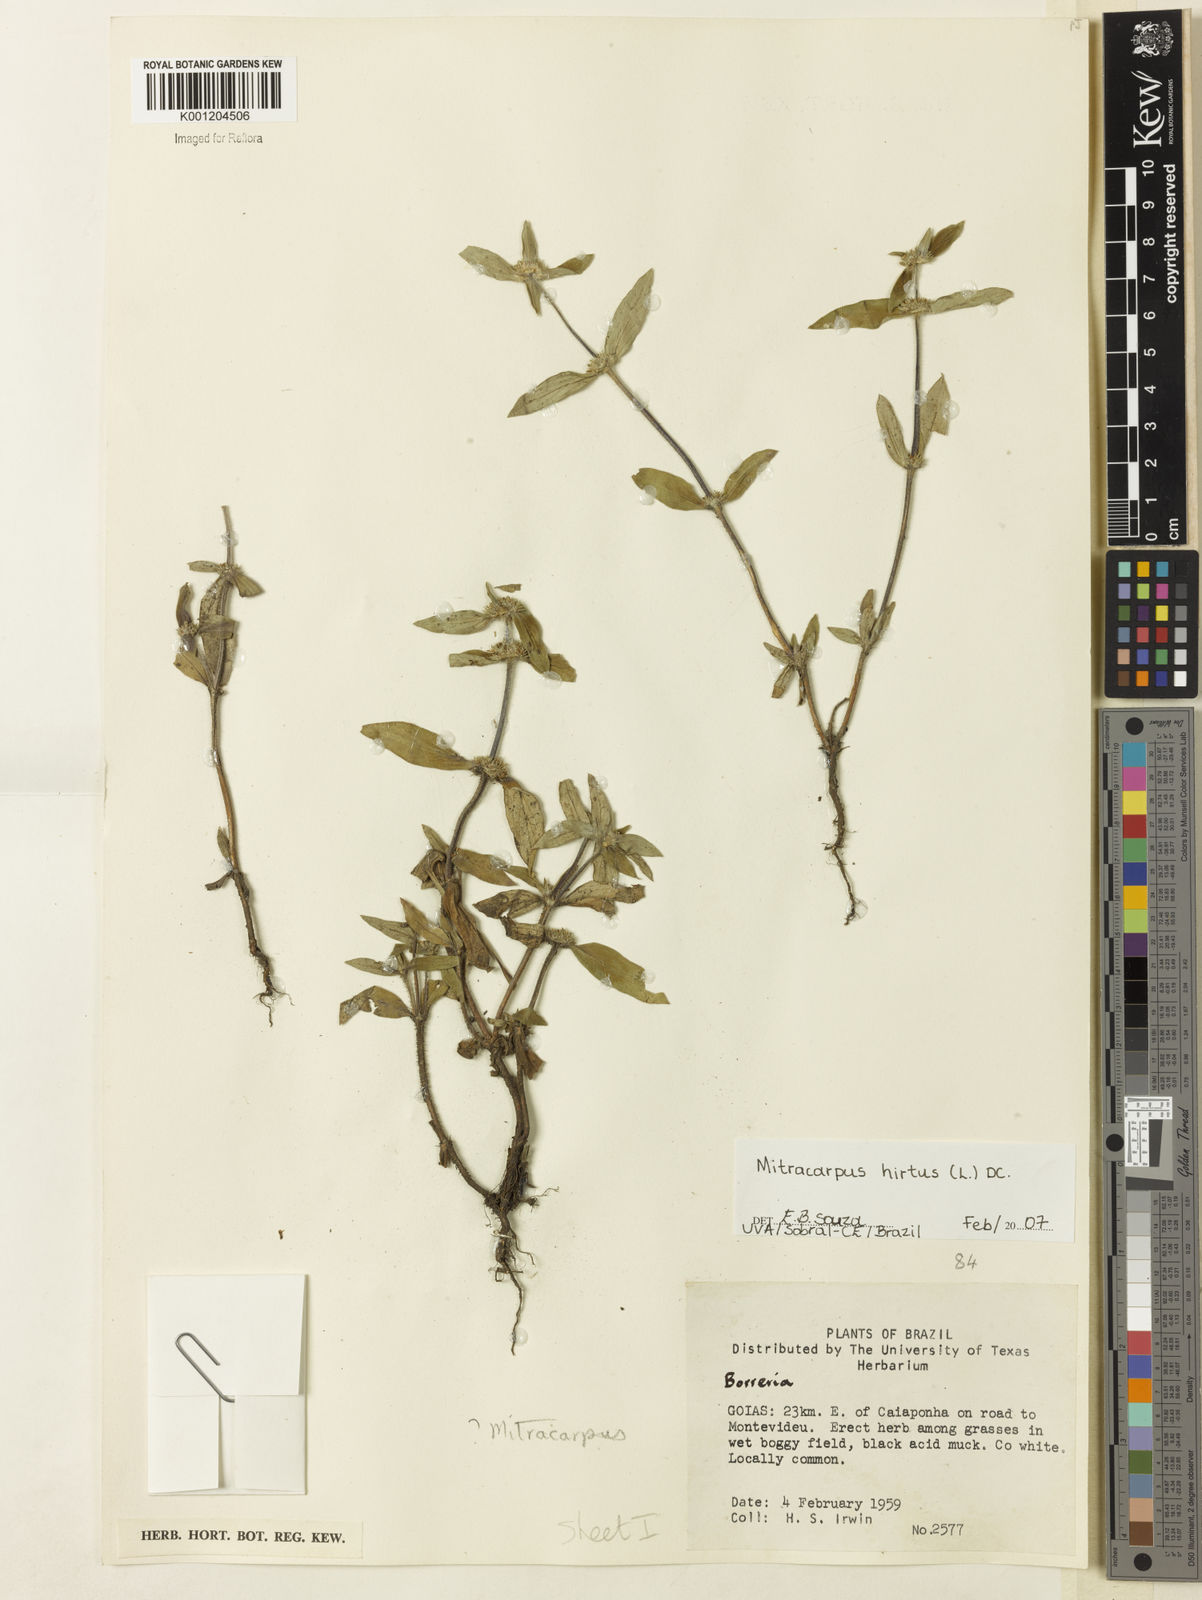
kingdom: Plantae
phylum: Tracheophyta
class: Magnoliopsida
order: Gentianales
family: Rubiaceae
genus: Mitracarpus
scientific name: Mitracarpus hirtus
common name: Tropical girdlepod
